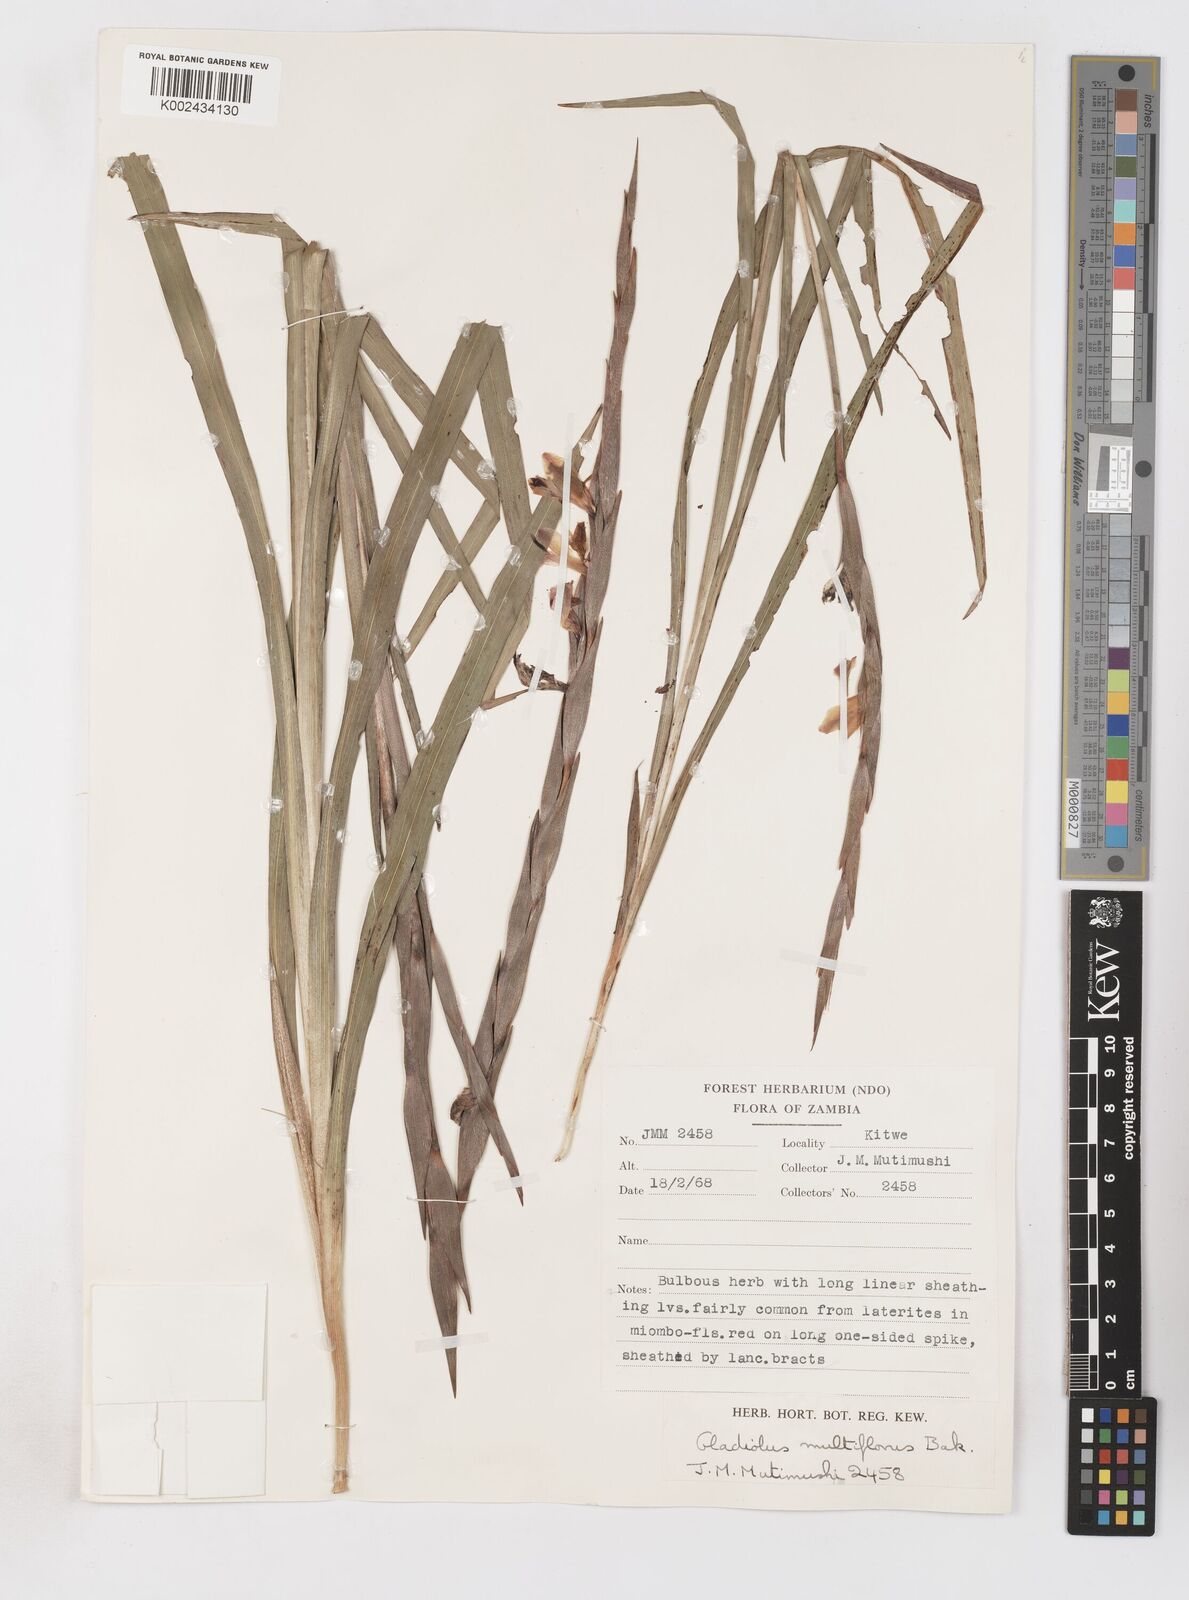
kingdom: Plantae
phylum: Tracheophyta
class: Liliopsida
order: Asparagales
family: Iridaceae
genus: Gladiolus
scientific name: Gladiolus gregarius
